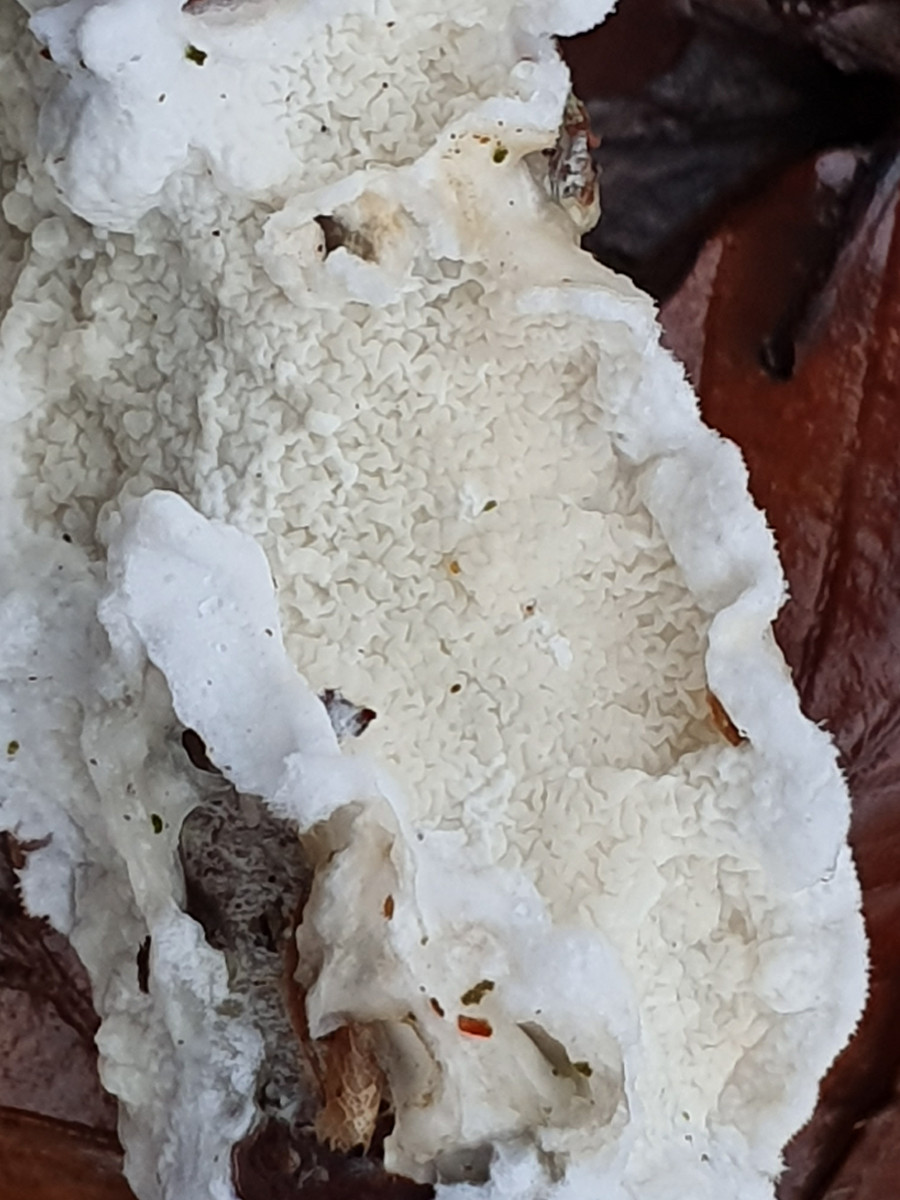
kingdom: Fungi
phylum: Basidiomycota
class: Agaricomycetes
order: Polyporales
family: Irpicaceae
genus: Byssomerulius
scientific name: Byssomerulius corium
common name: læder-åresvamp
